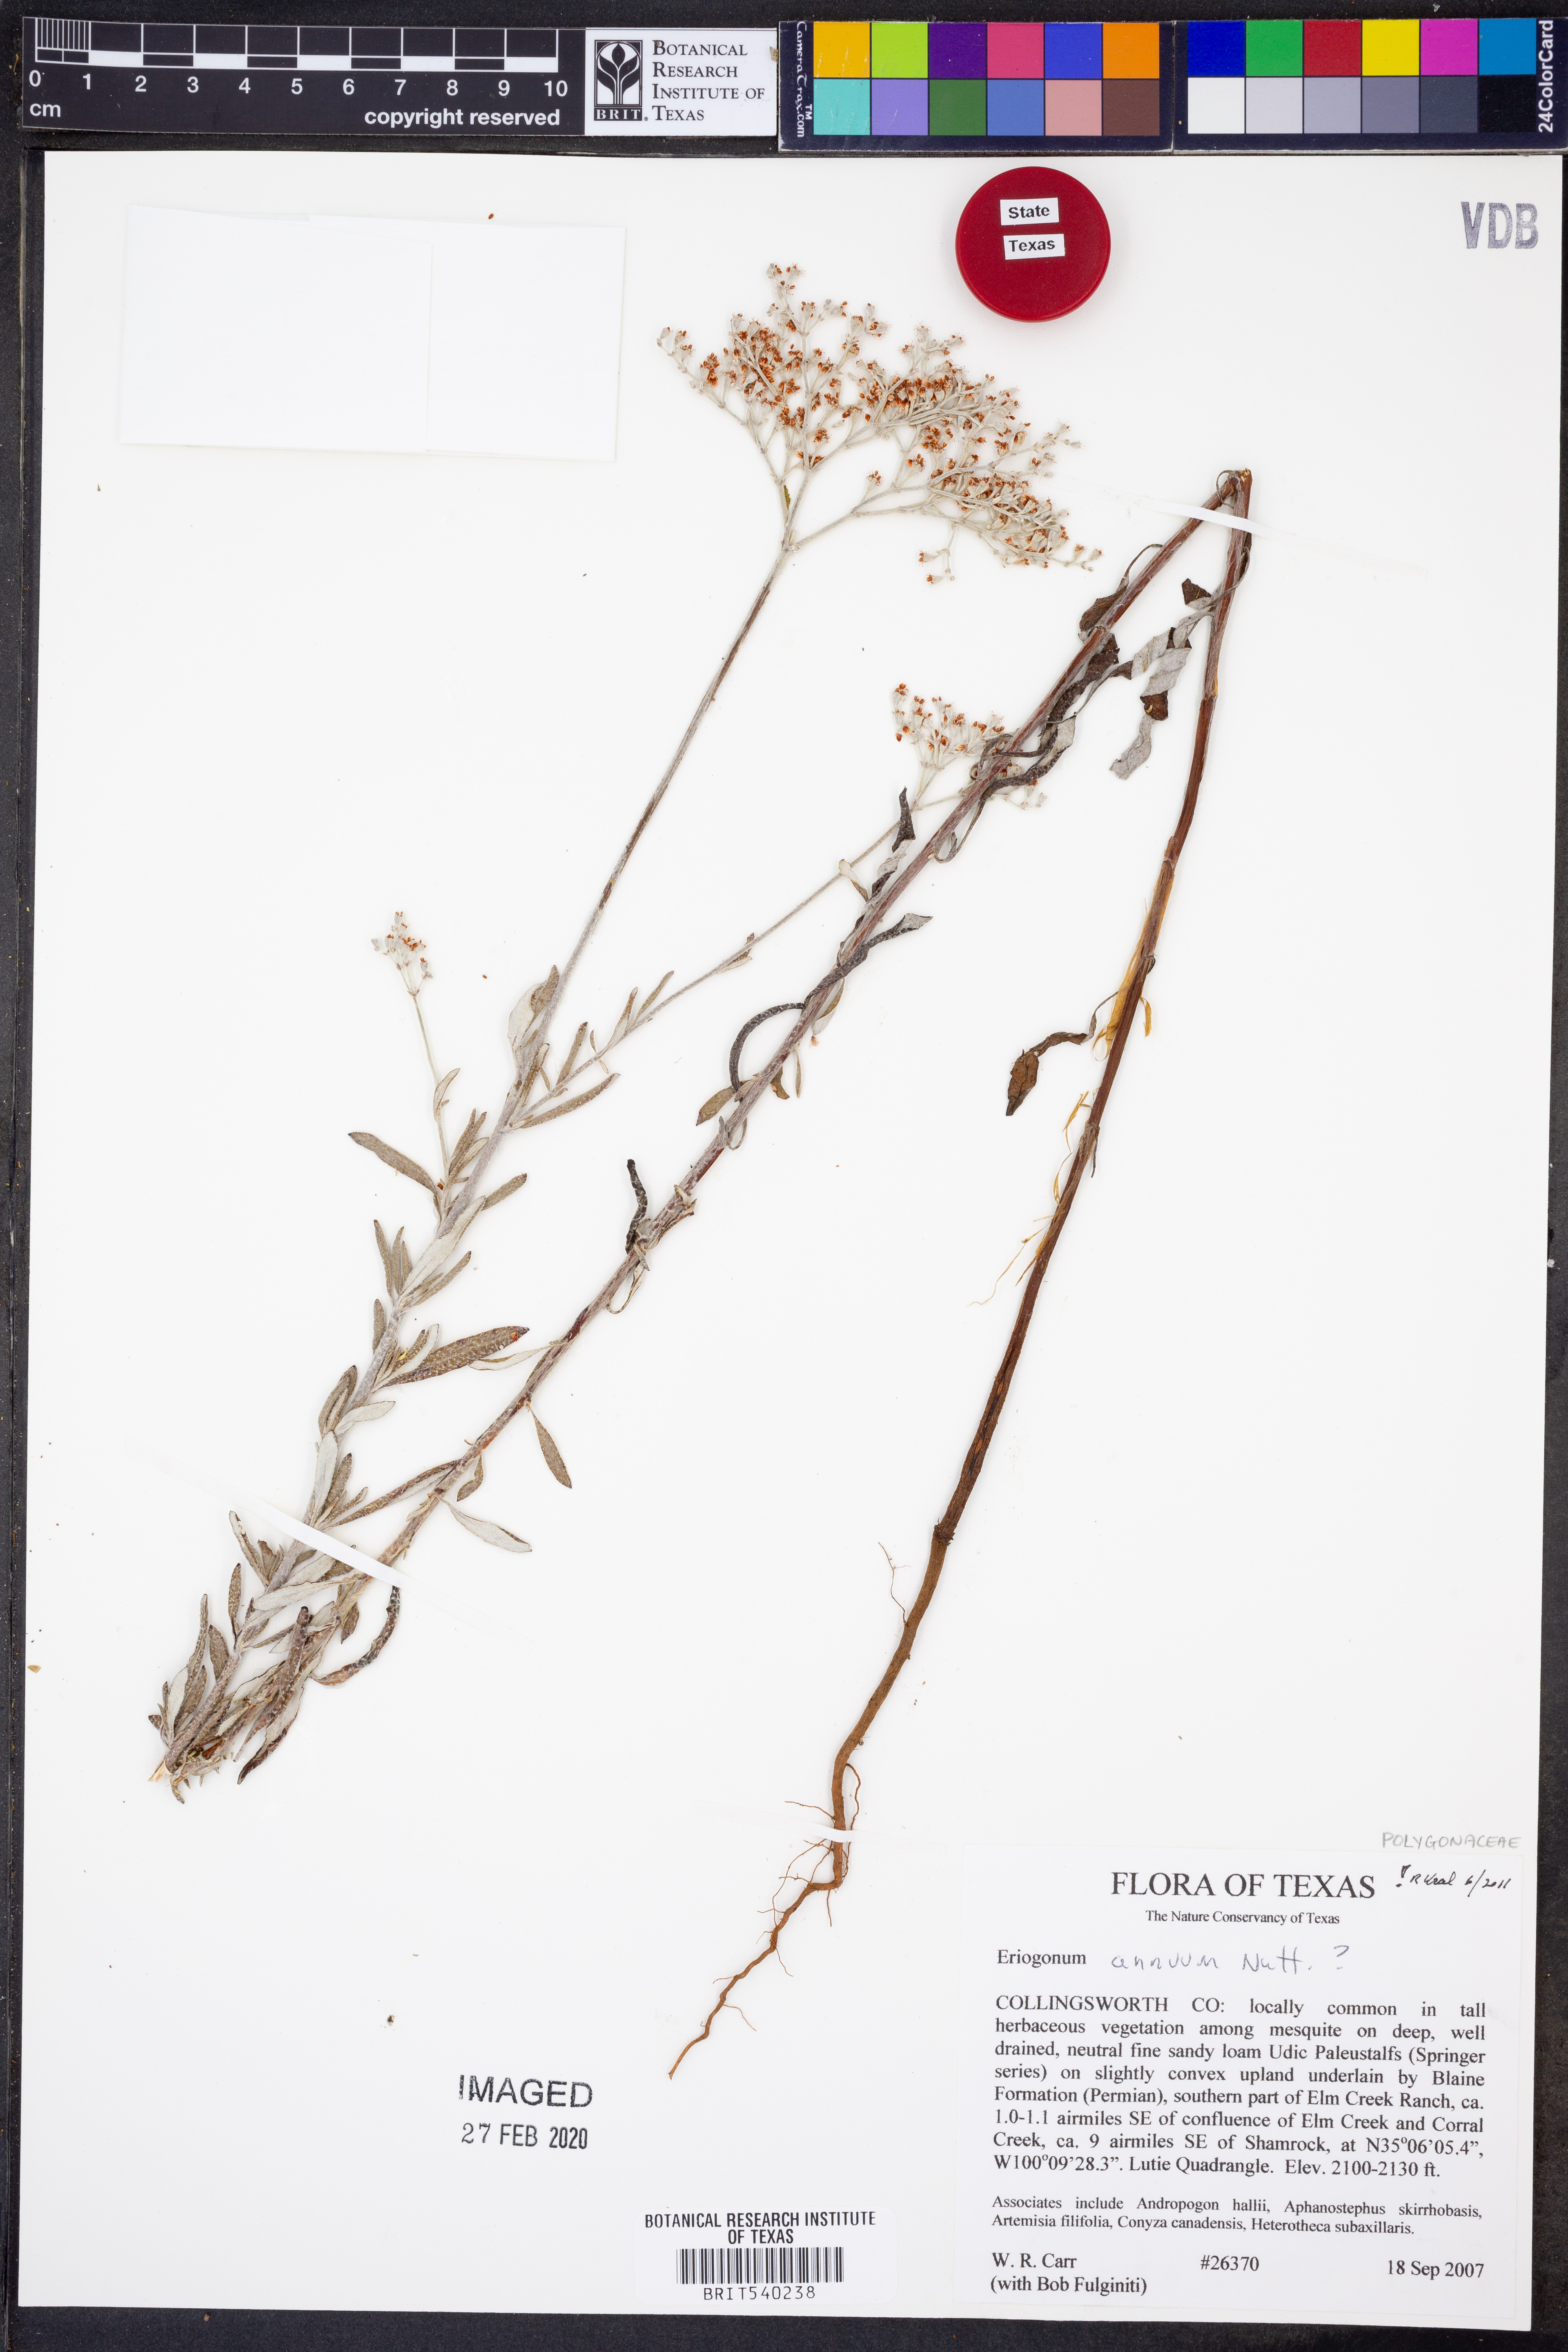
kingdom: Plantae
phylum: Tracheophyta
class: Magnoliopsida
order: Caryophyllales
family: Polygonaceae
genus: Eriogonum
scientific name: Eriogonum annuum
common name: Annual wild buckwheat
